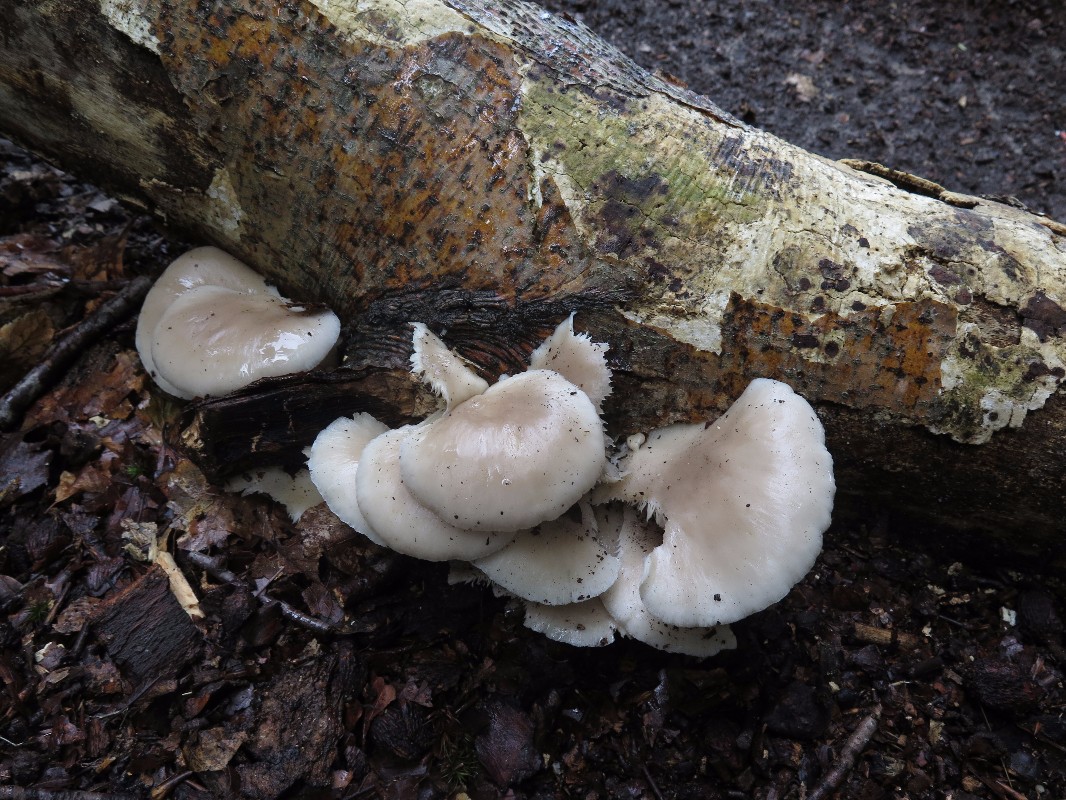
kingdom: Fungi
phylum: Basidiomycota
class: Agaricomycetes
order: Agaricales
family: Pleurotaceae
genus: Pleurotus
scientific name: Pleurotus pulmonarius
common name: sommer-østershat
